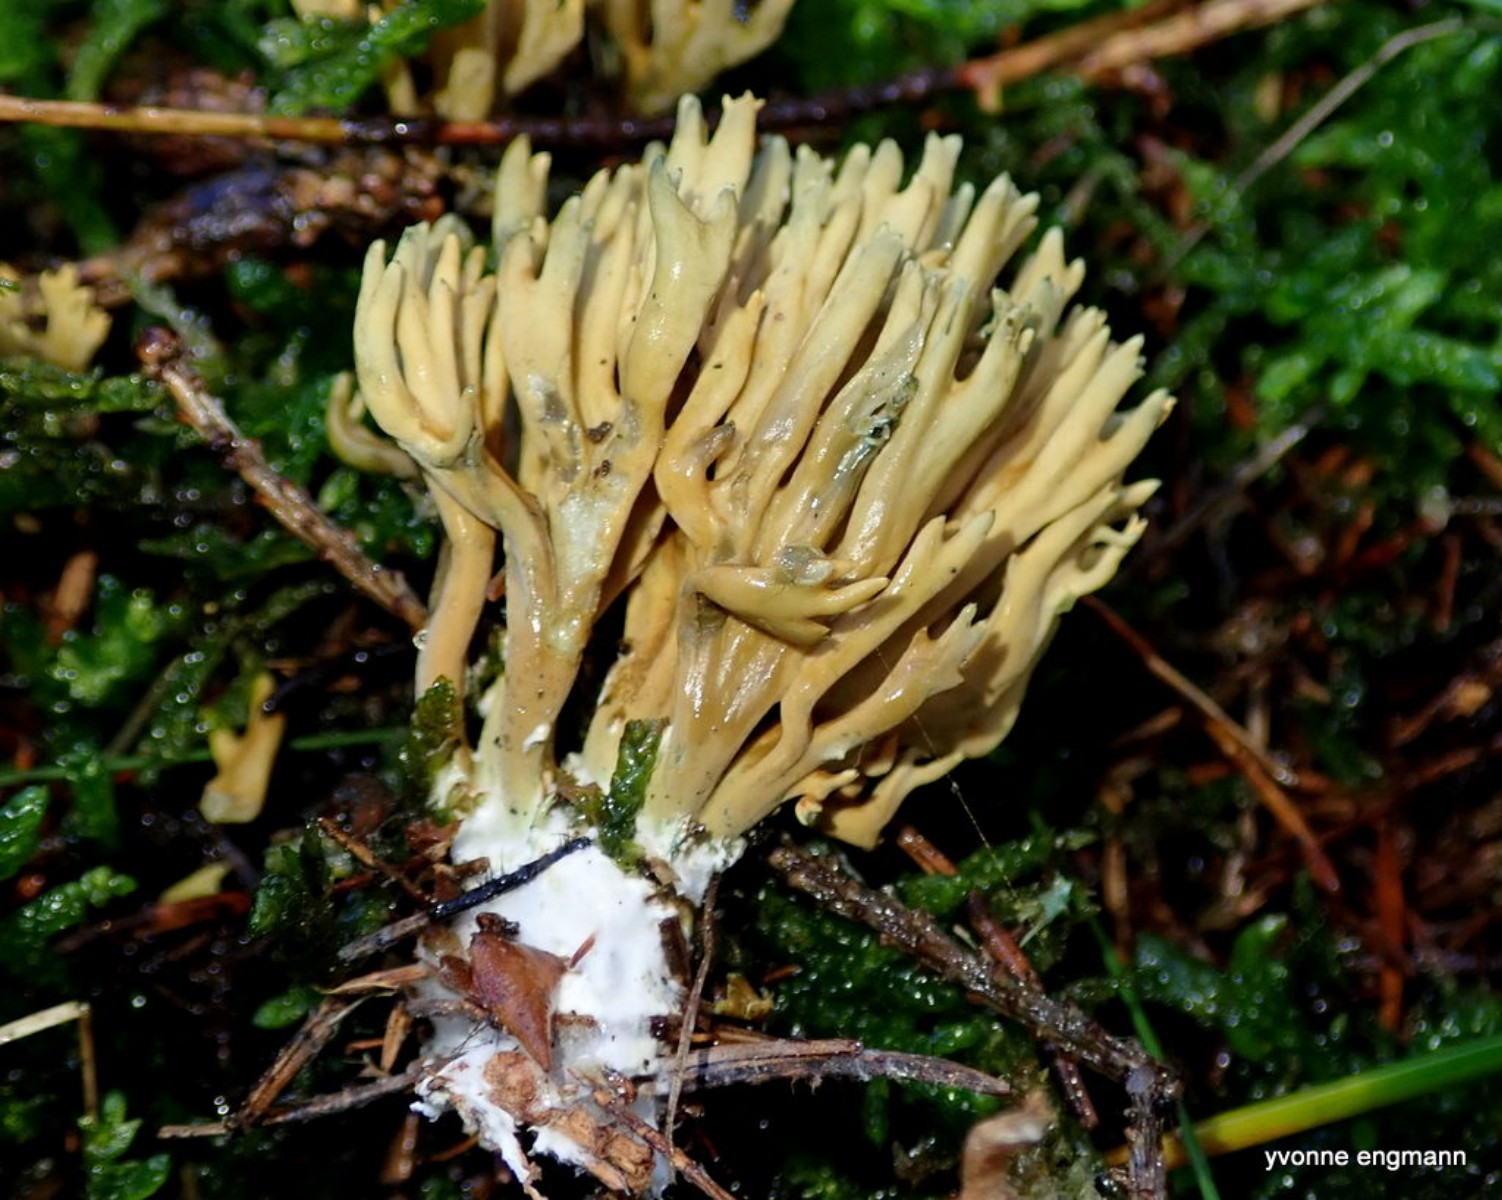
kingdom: Fungi
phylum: Basidiomycota
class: Agaricomycetes
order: Gomphales
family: Gomphaceae
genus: Phaeoclavulina
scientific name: Phaeoclavulina abietina
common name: gulgrøn koralsvamp
